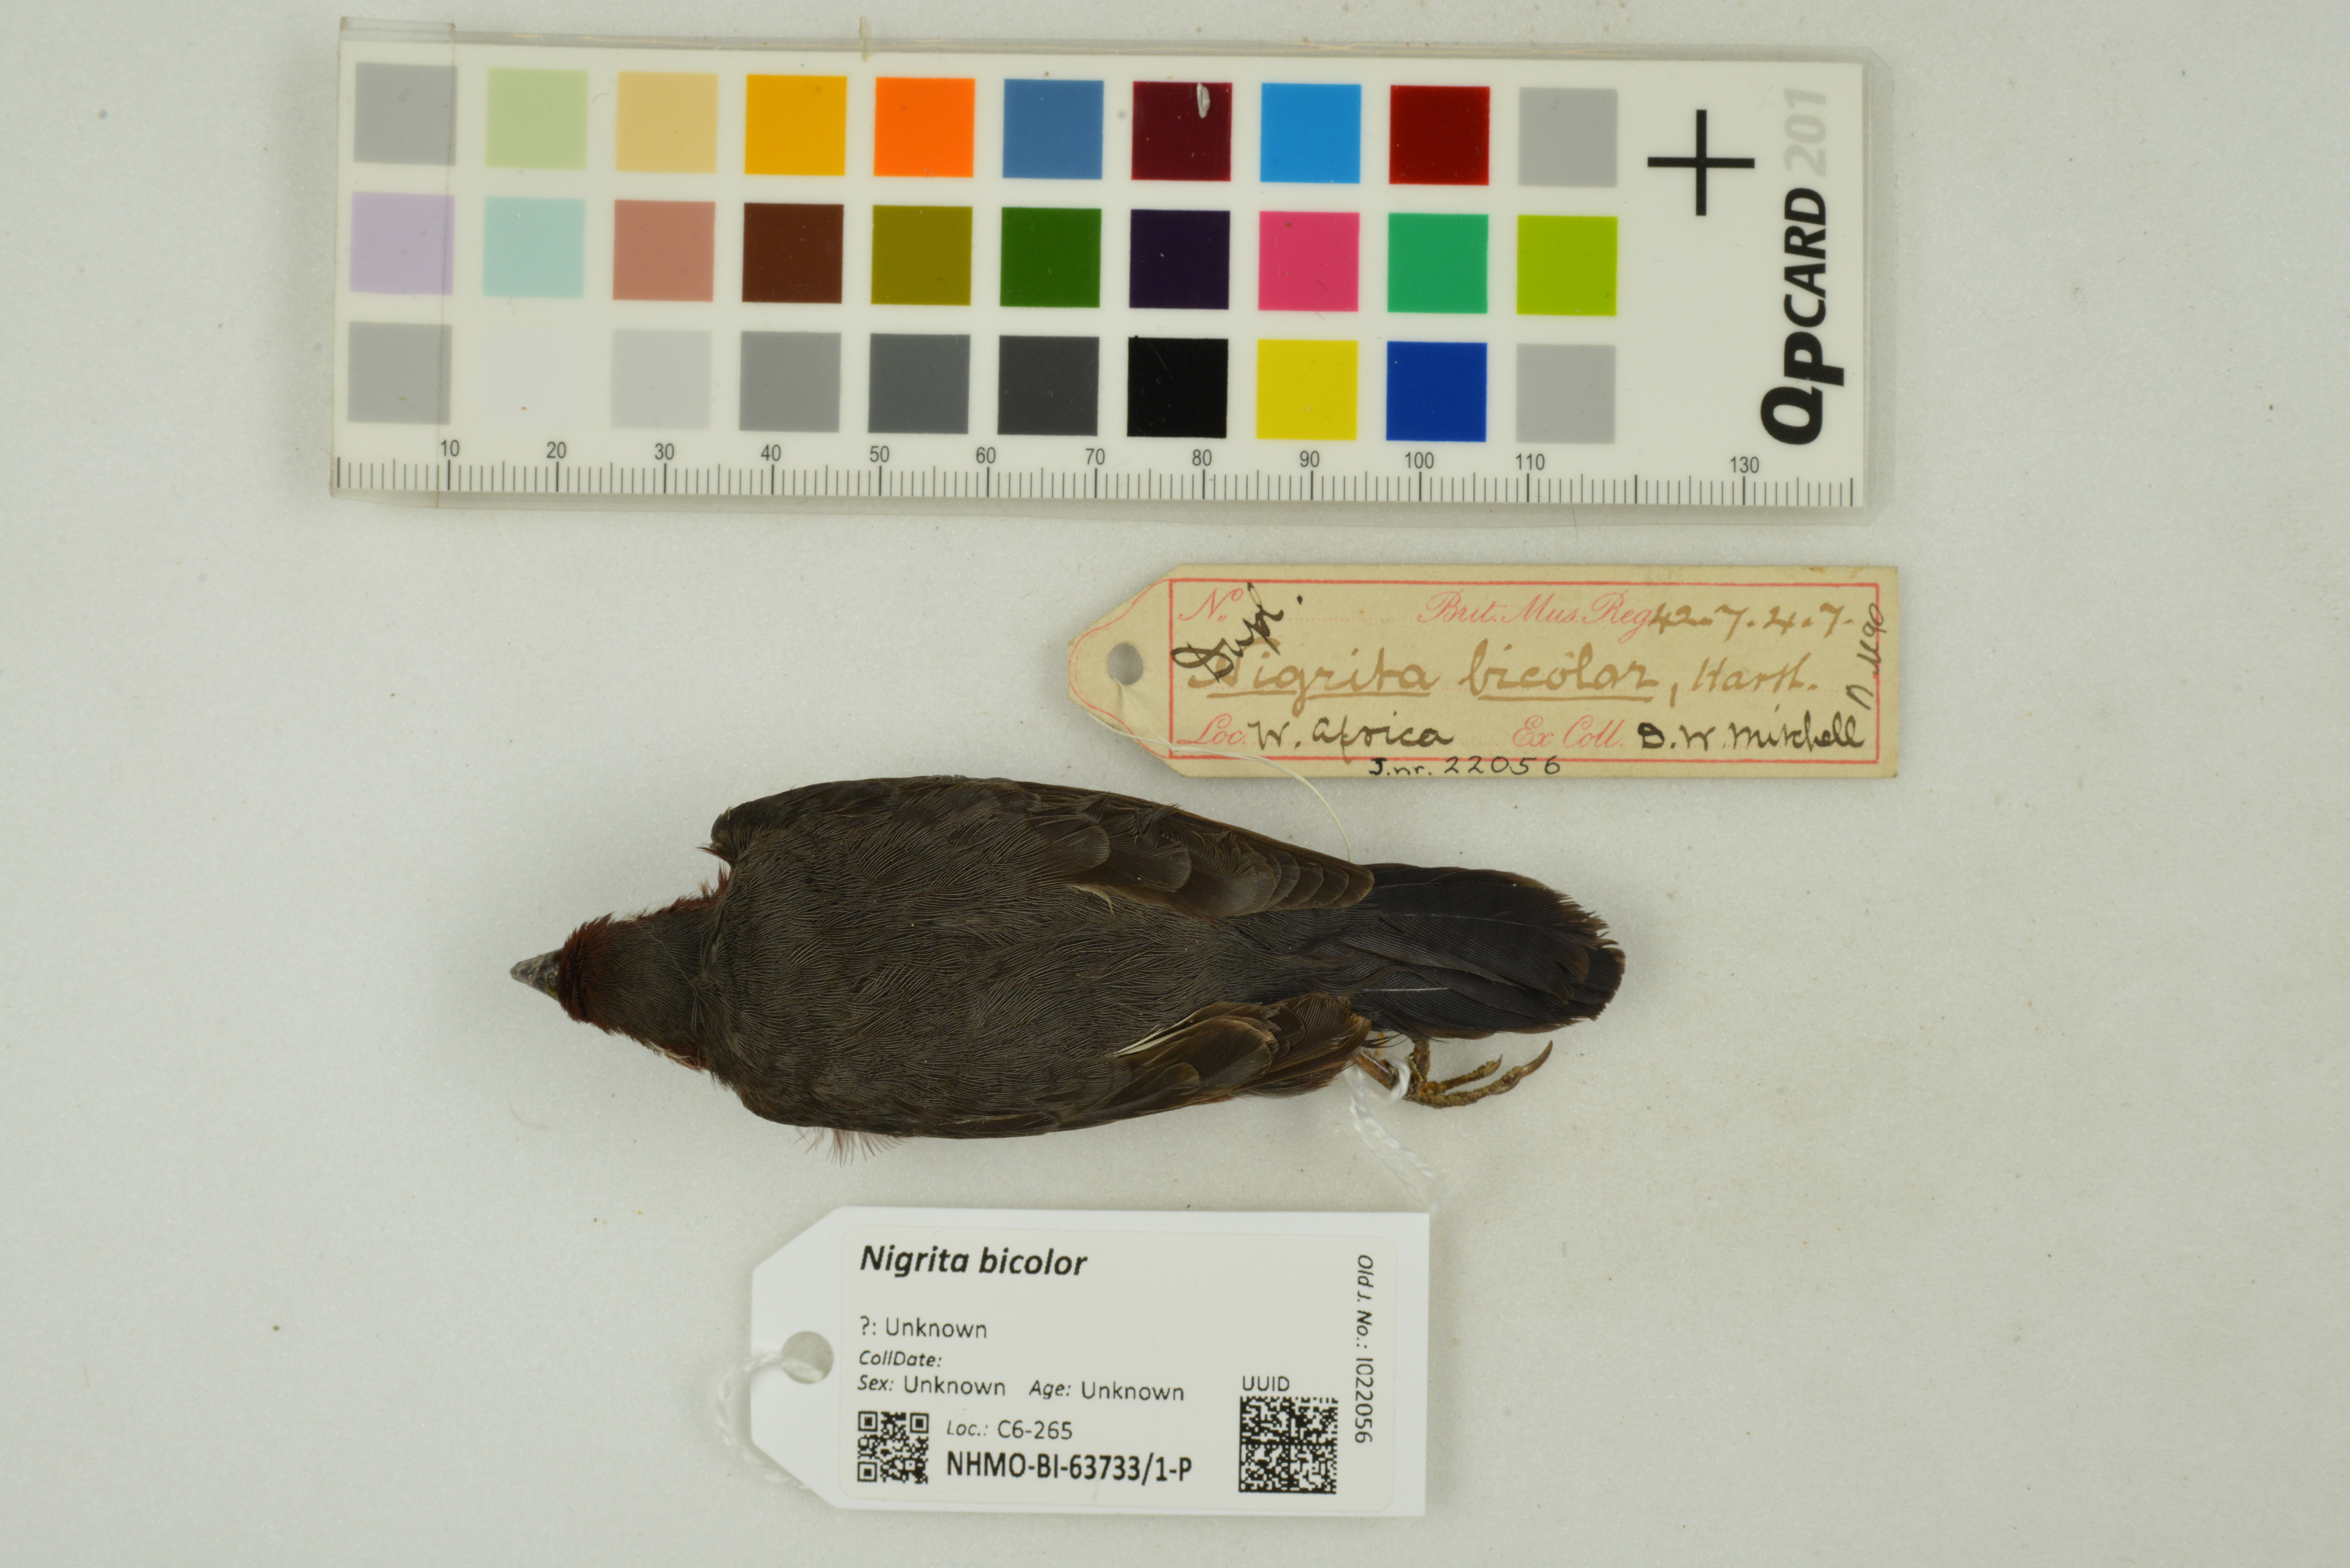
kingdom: Animalia
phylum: Chordata
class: Aves
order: Passeriformes
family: Estrildidae
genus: Nigrita
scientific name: Nigrita bicolor
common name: Chestnut-breasted nigrita
